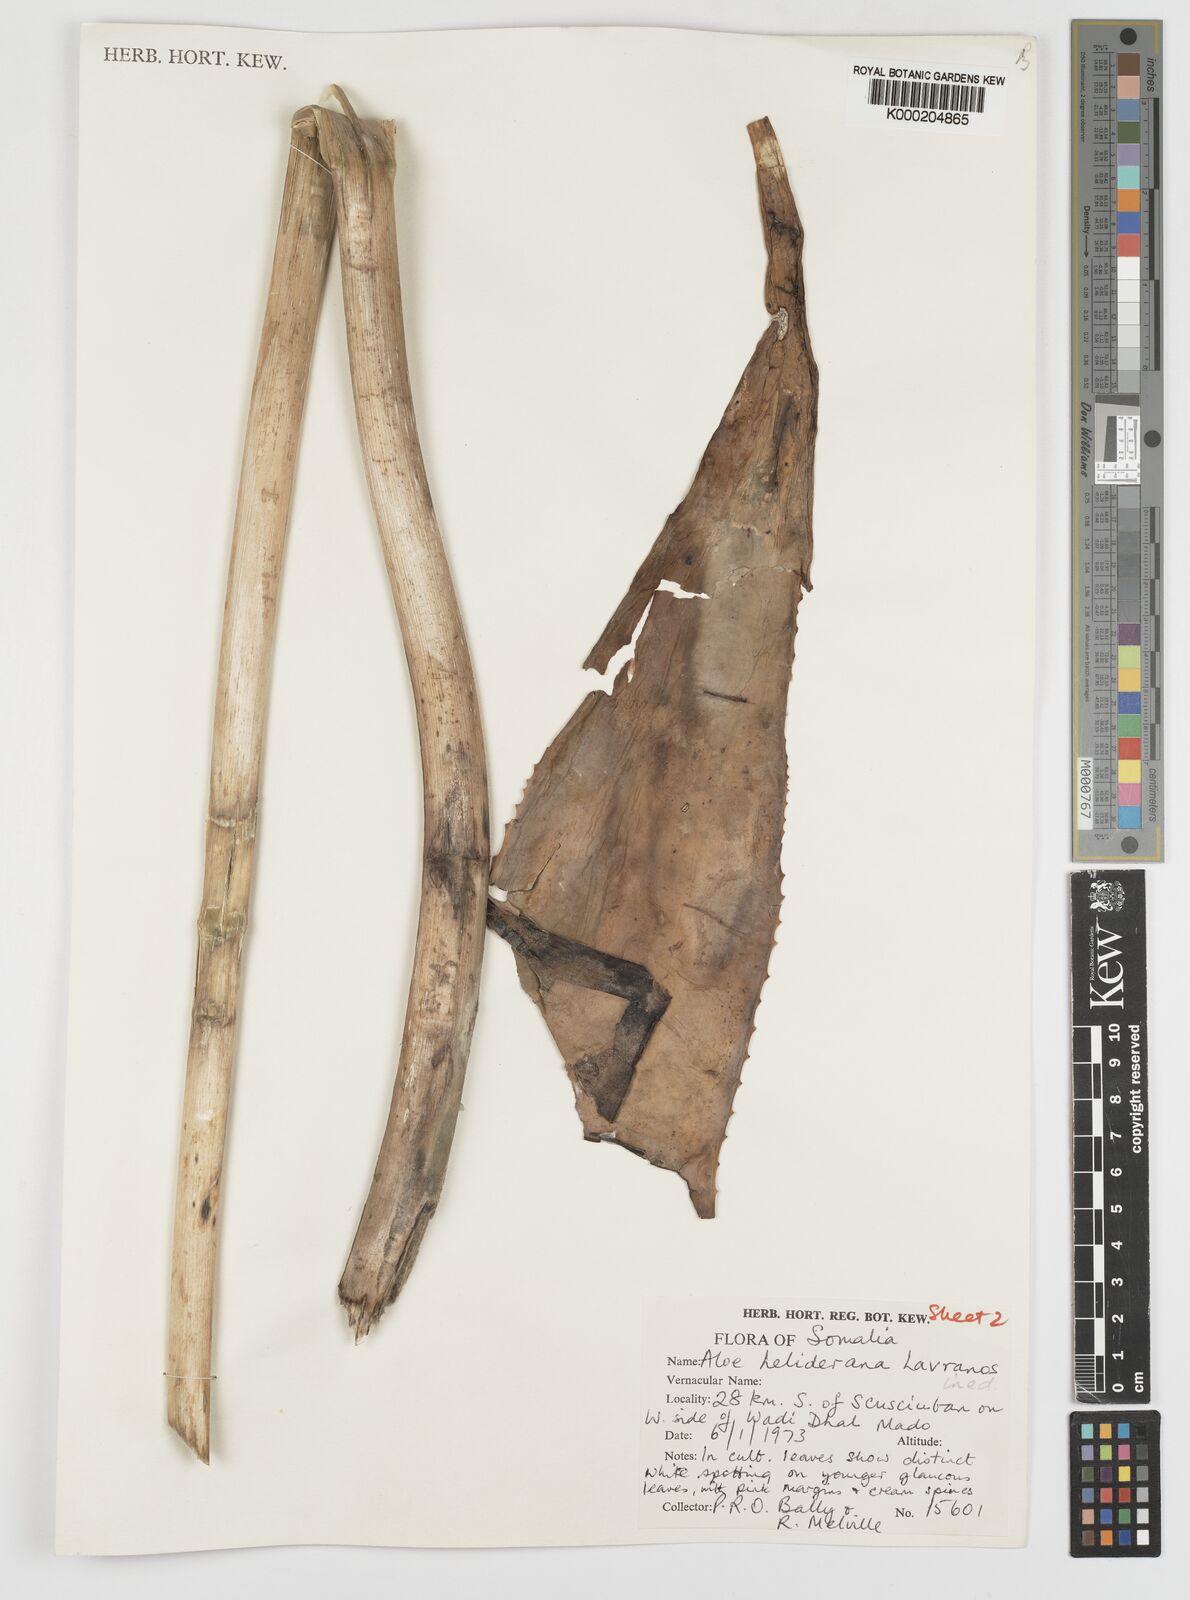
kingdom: Plantae
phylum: Tracheophyta
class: Liliopsida
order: Asparagales
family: Asphodelaceae
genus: Aloe
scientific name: Aloe heliderana
